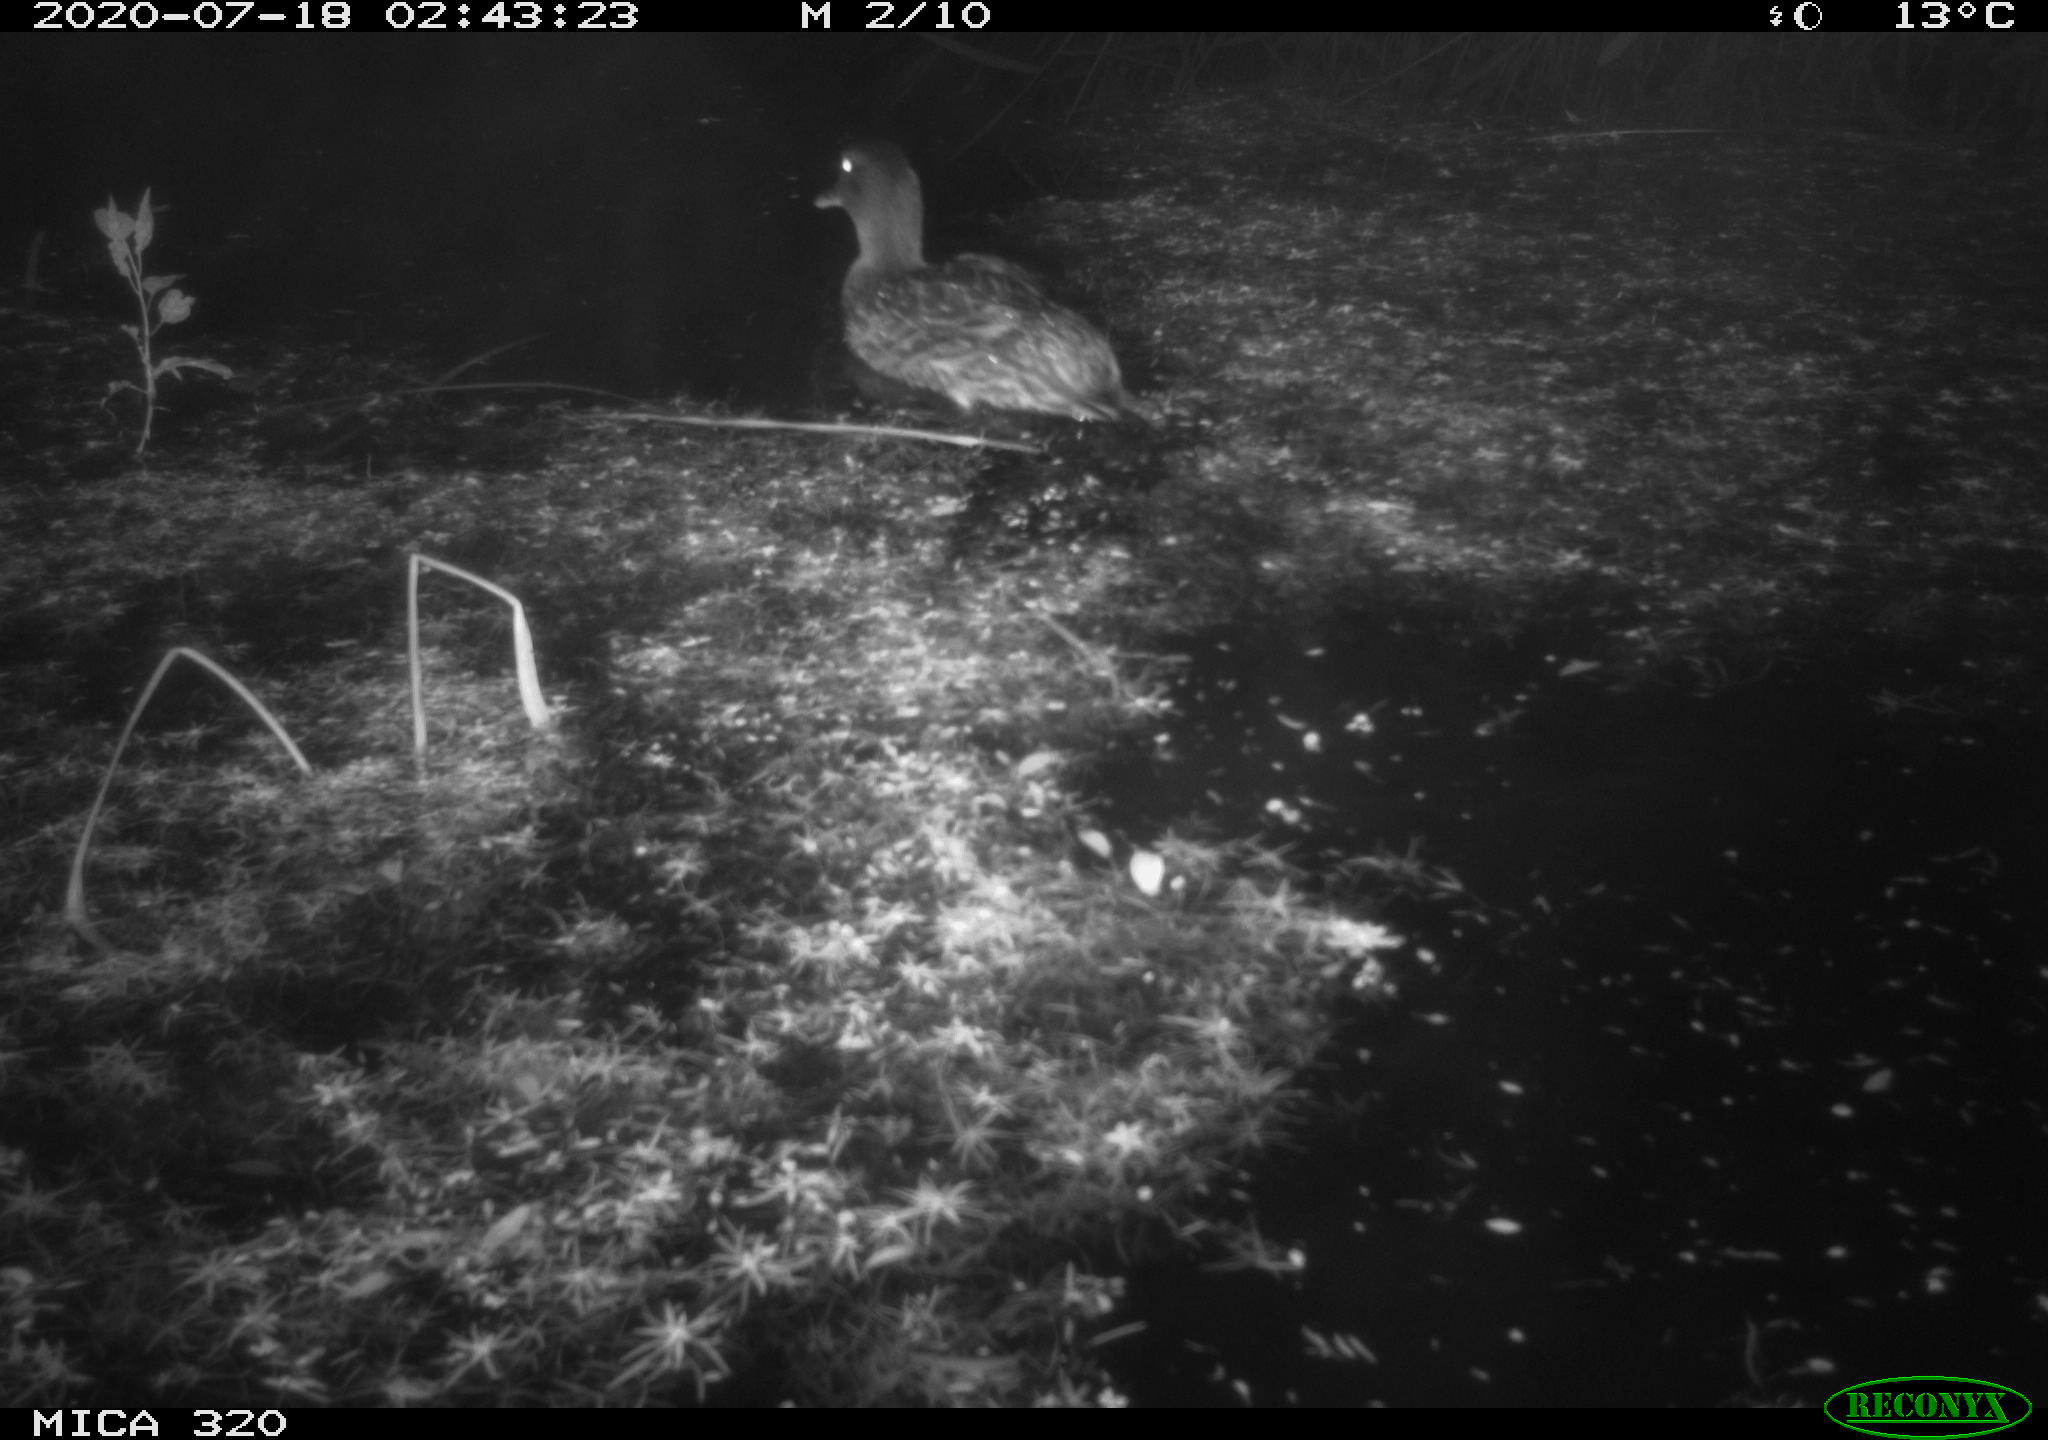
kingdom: Animalia
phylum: Chordata
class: Aves
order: Anseriformes
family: Anatidae
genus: Anas
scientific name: Anas platyrhynchos
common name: Mallard
